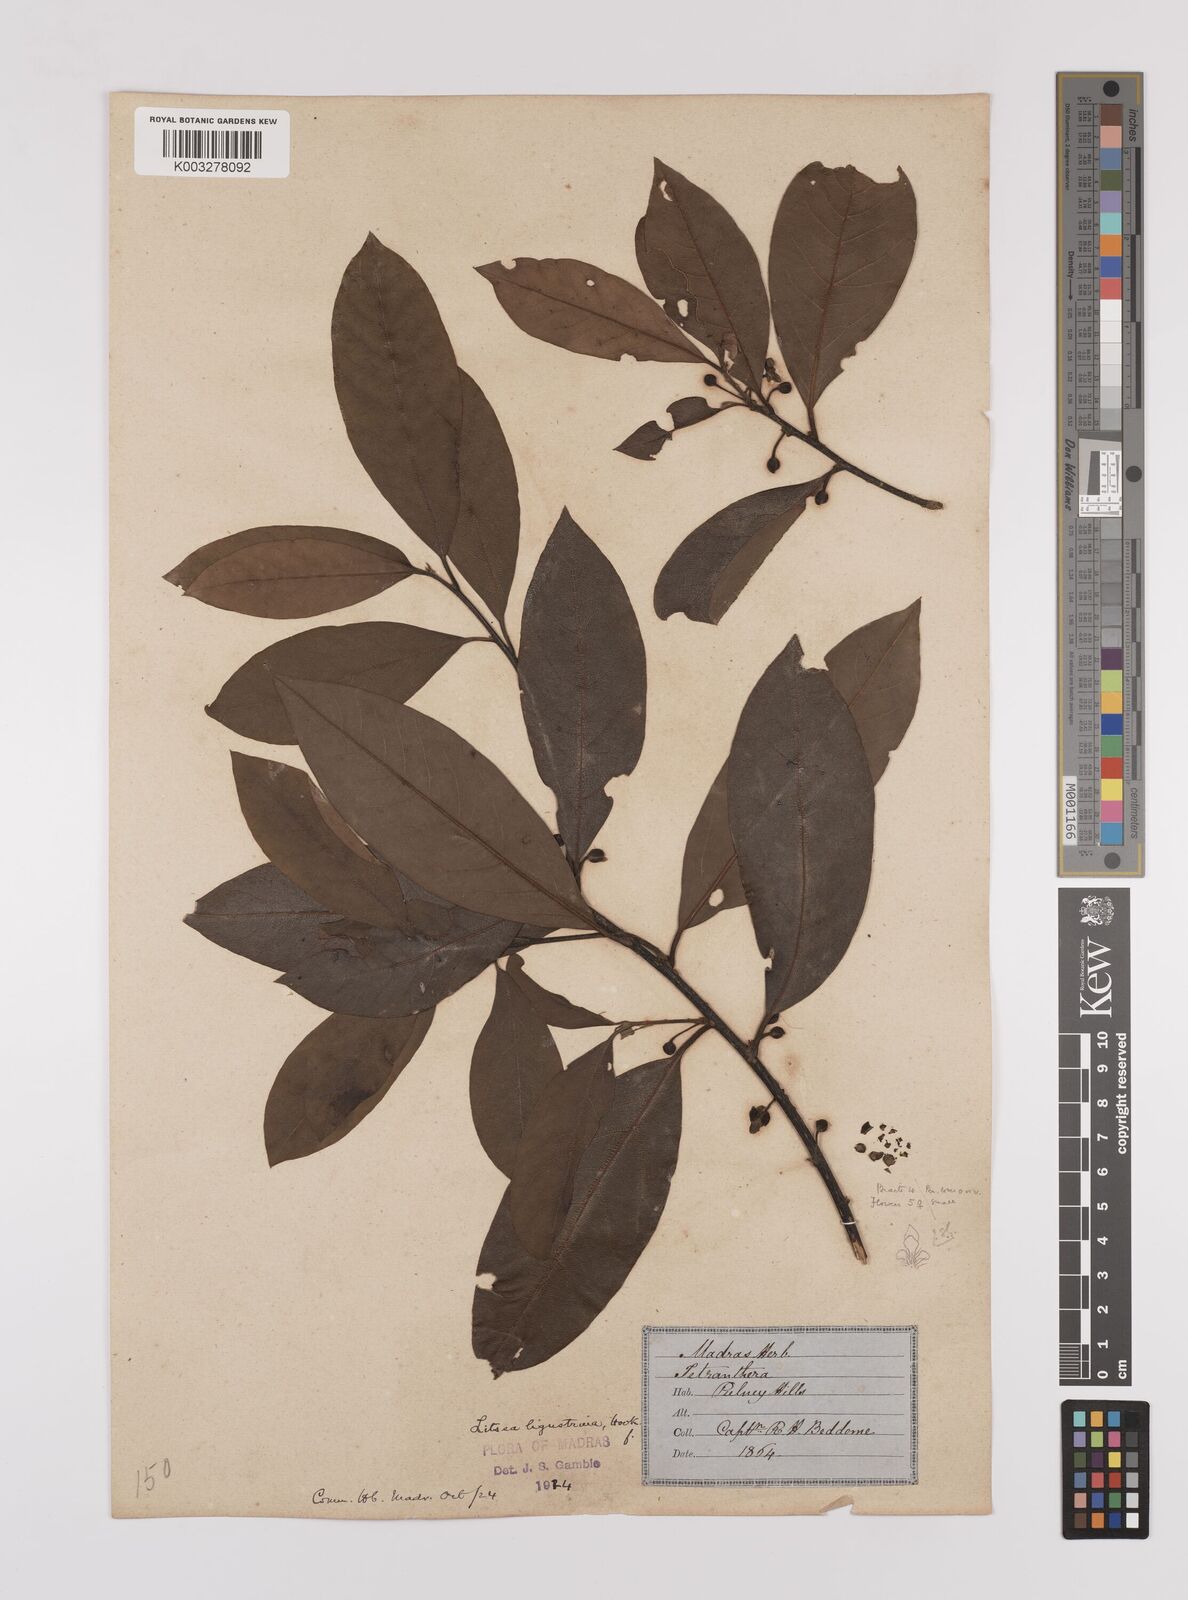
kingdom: Plantae
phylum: Tracheophyta
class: Magnoliopsida
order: Laurales
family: Lauraceae
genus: Litsea
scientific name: Litsea ligustrina
